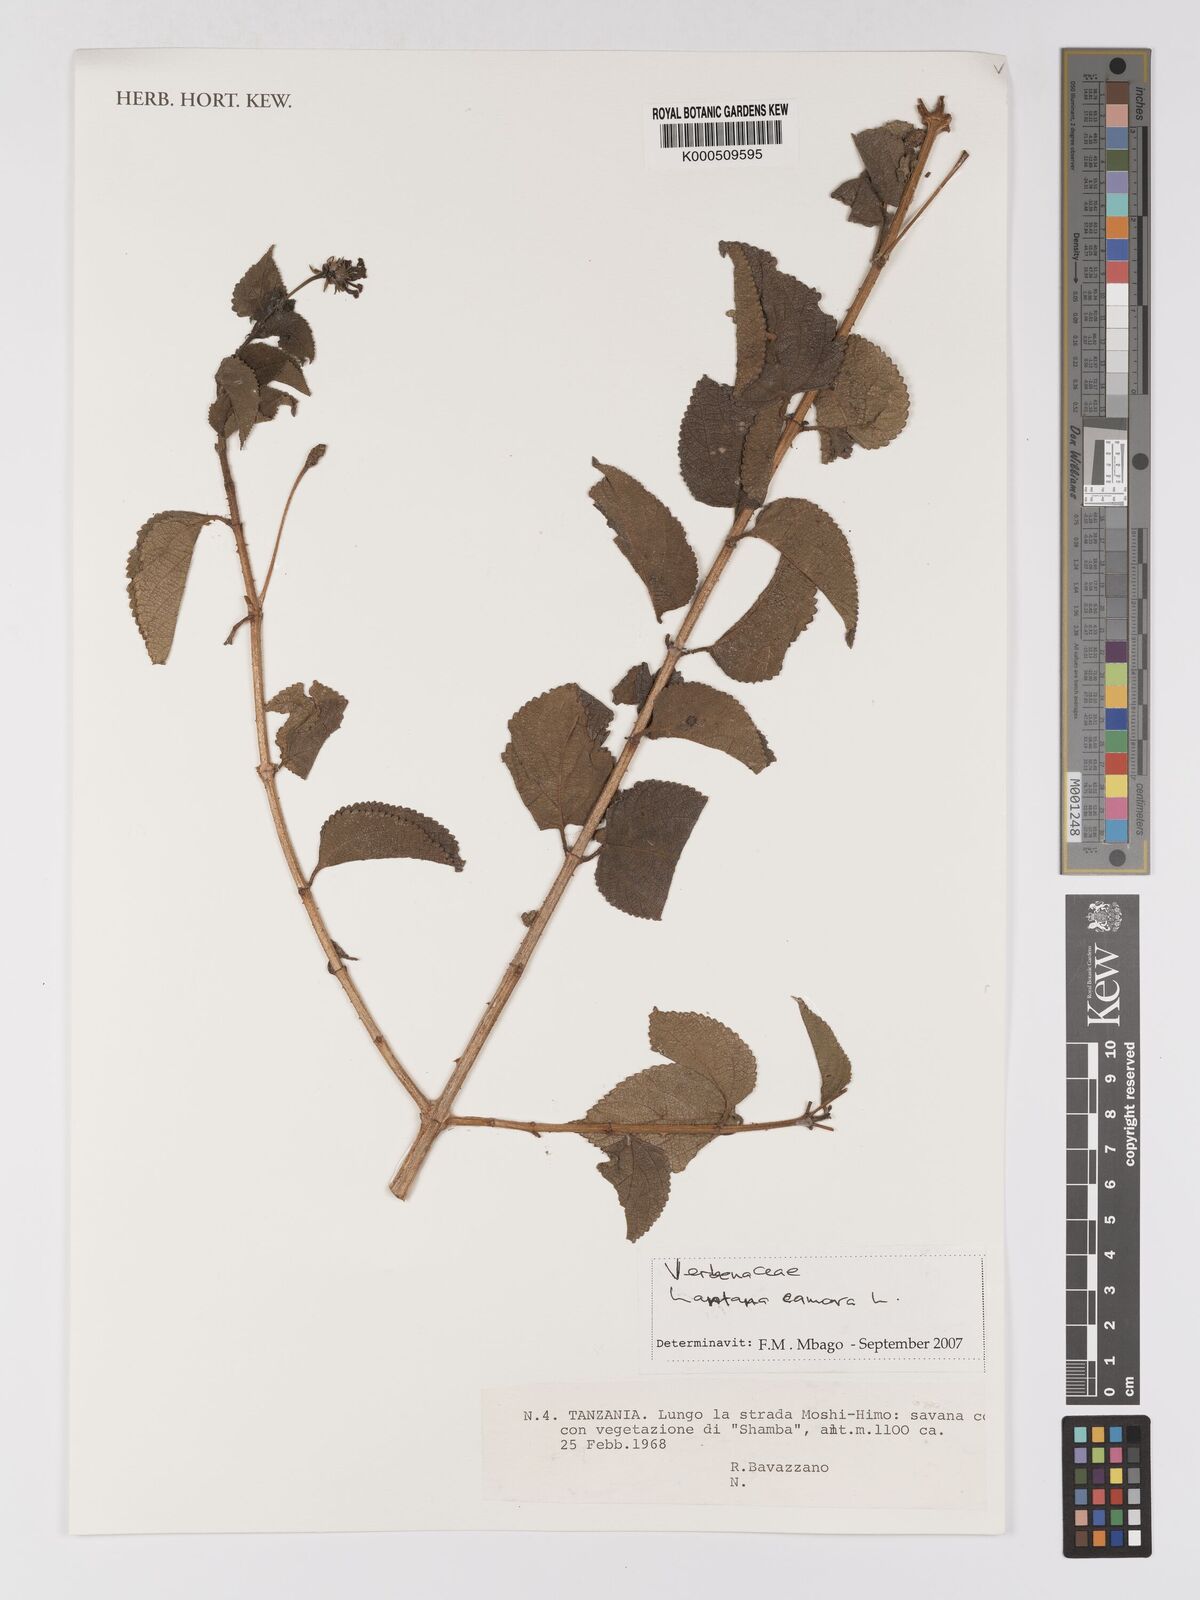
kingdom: Plantae
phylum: Tracheophyta
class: Magnoliopsida
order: Lamiales
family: Verbenaceae
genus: Lantana
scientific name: Lantana camara
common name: Lantana
